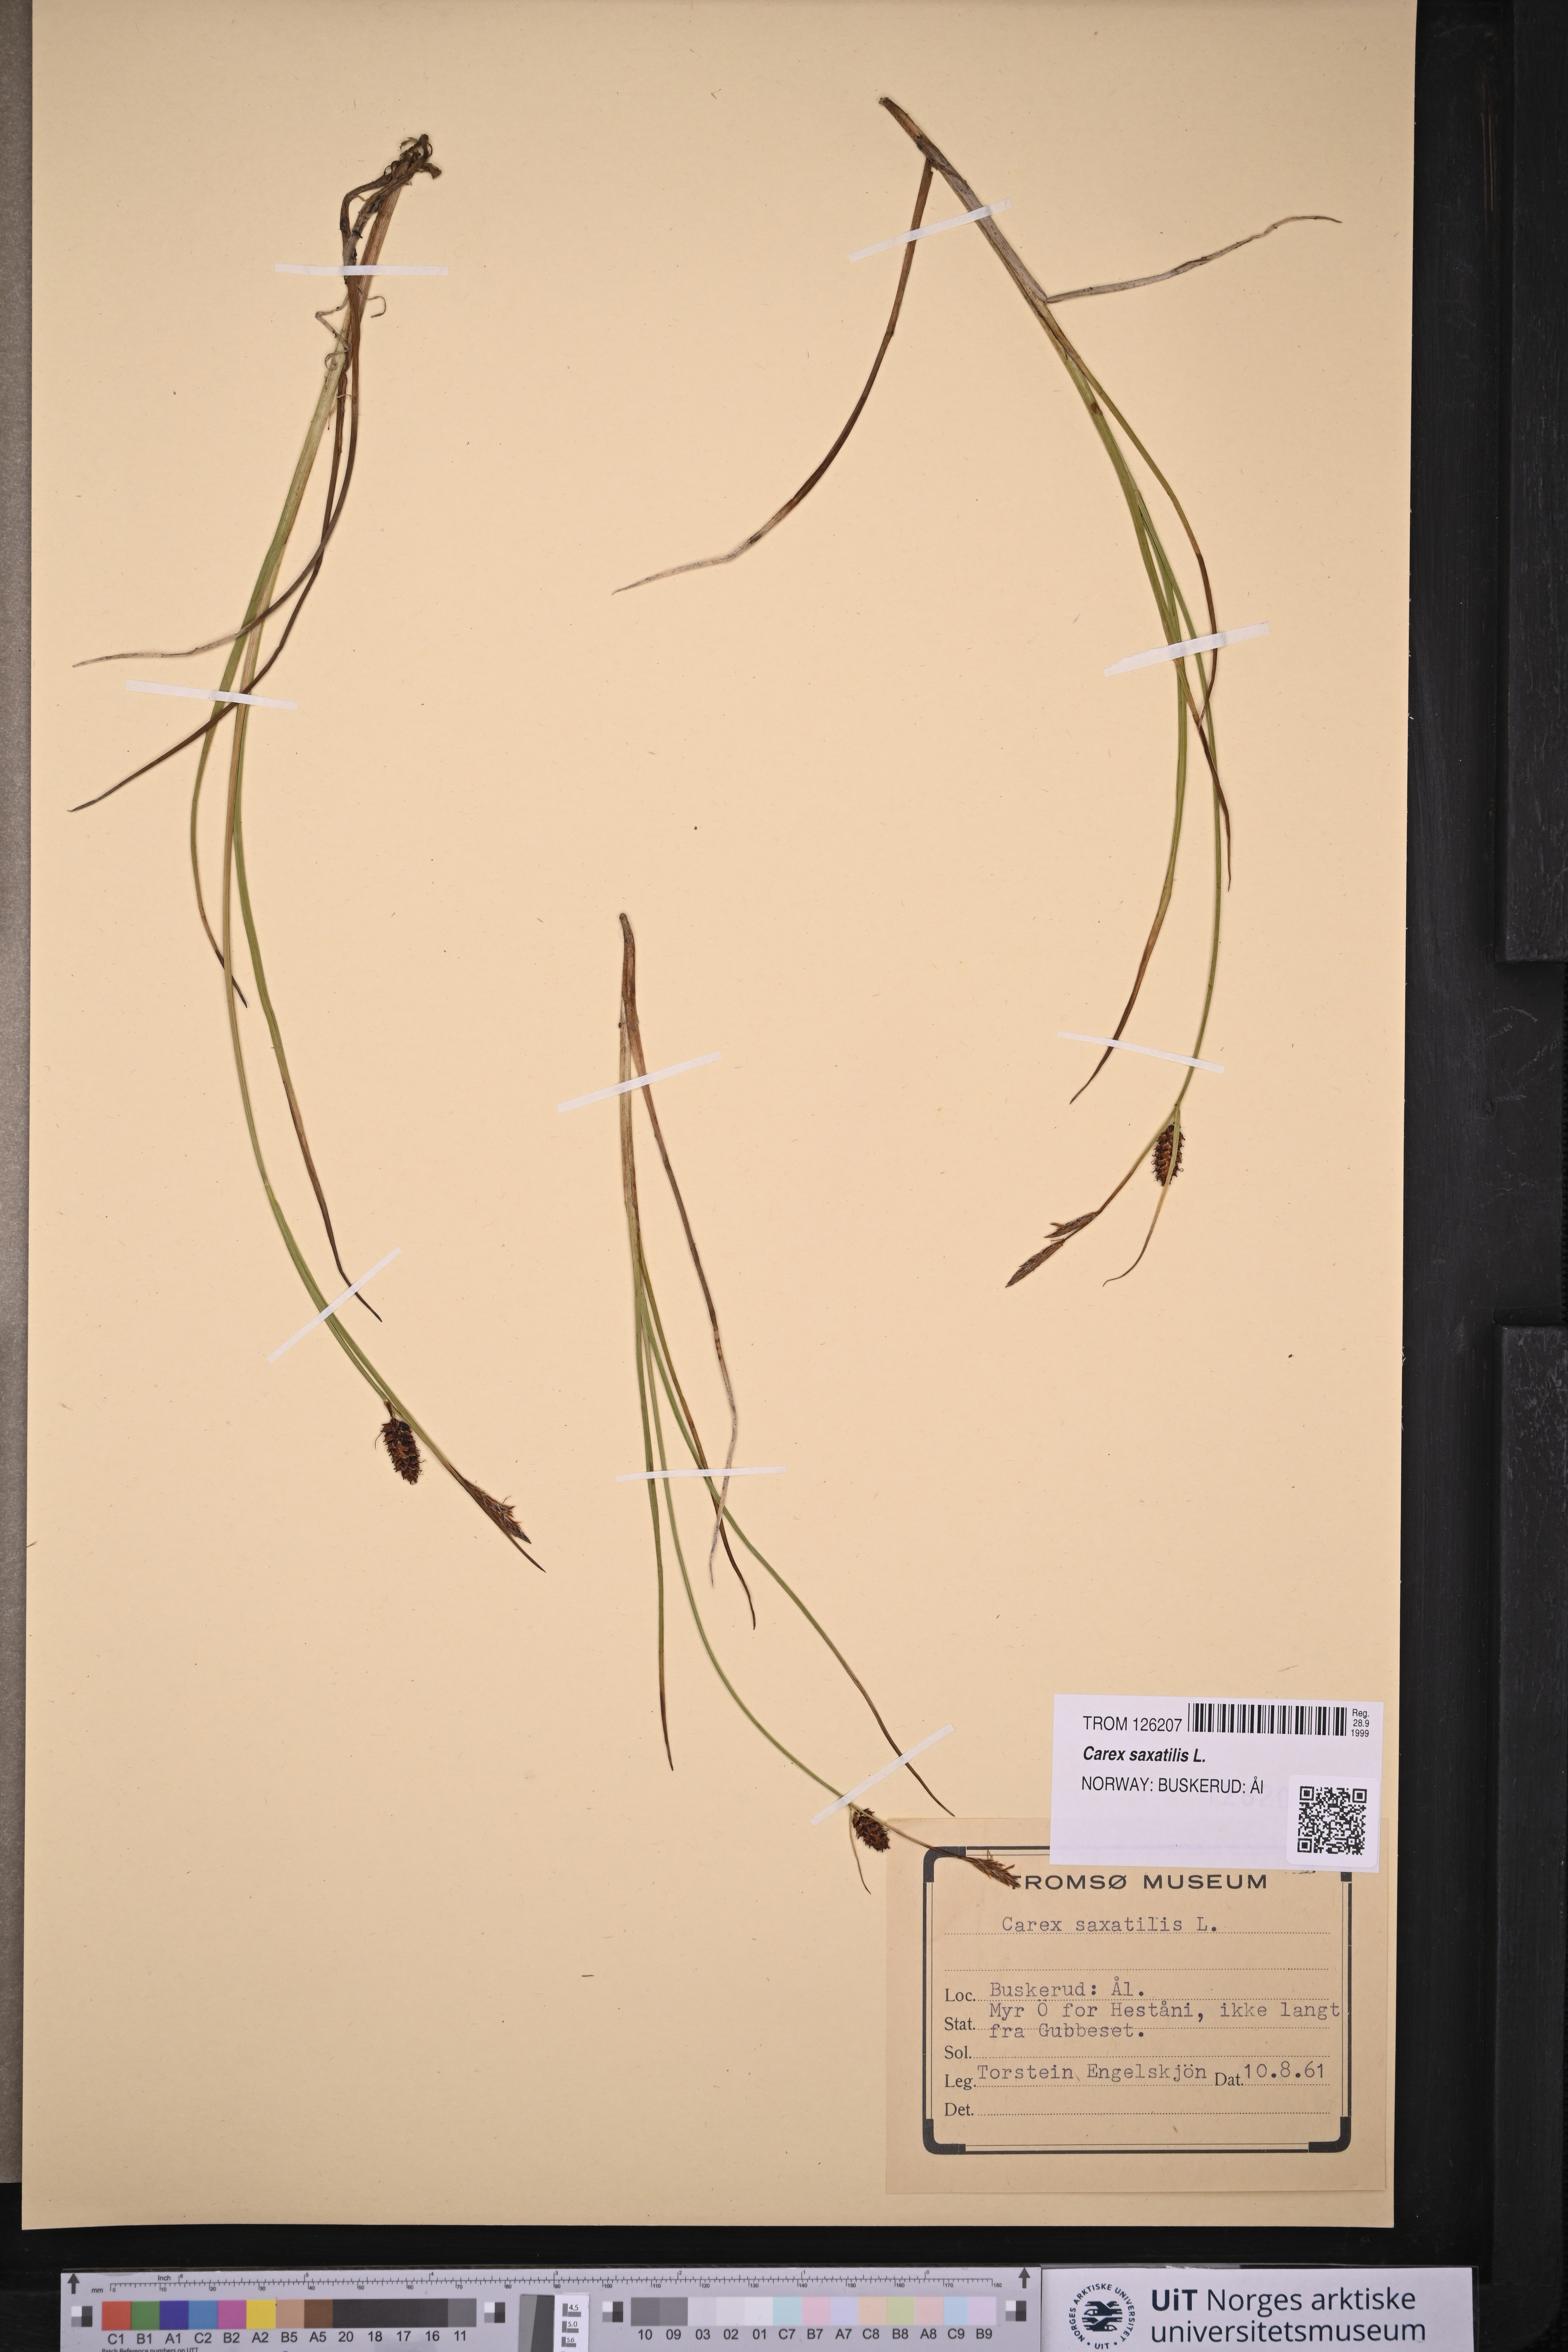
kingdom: Plantae
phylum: Tracheophyta
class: Liliopsida
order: Poales
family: Cyperaceae
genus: Carex
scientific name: Carex saxatilis
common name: Russet sedge
